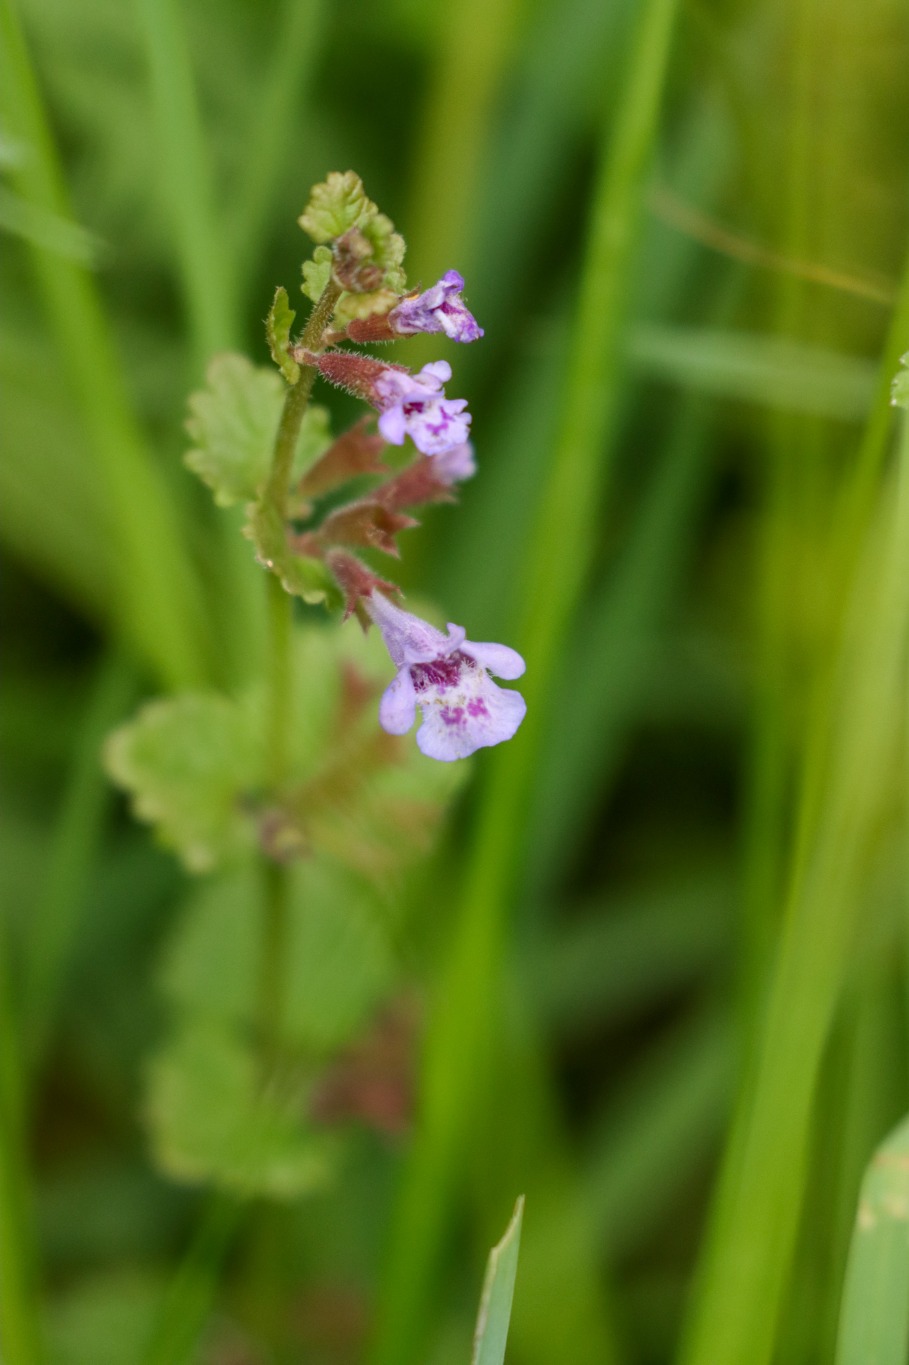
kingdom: Plantae
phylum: Tracheophyta
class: Magnoliopsida
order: Lamiales
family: Lamiaceae
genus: Glechoma
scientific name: Glechoma hederacea
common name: Korsknap
